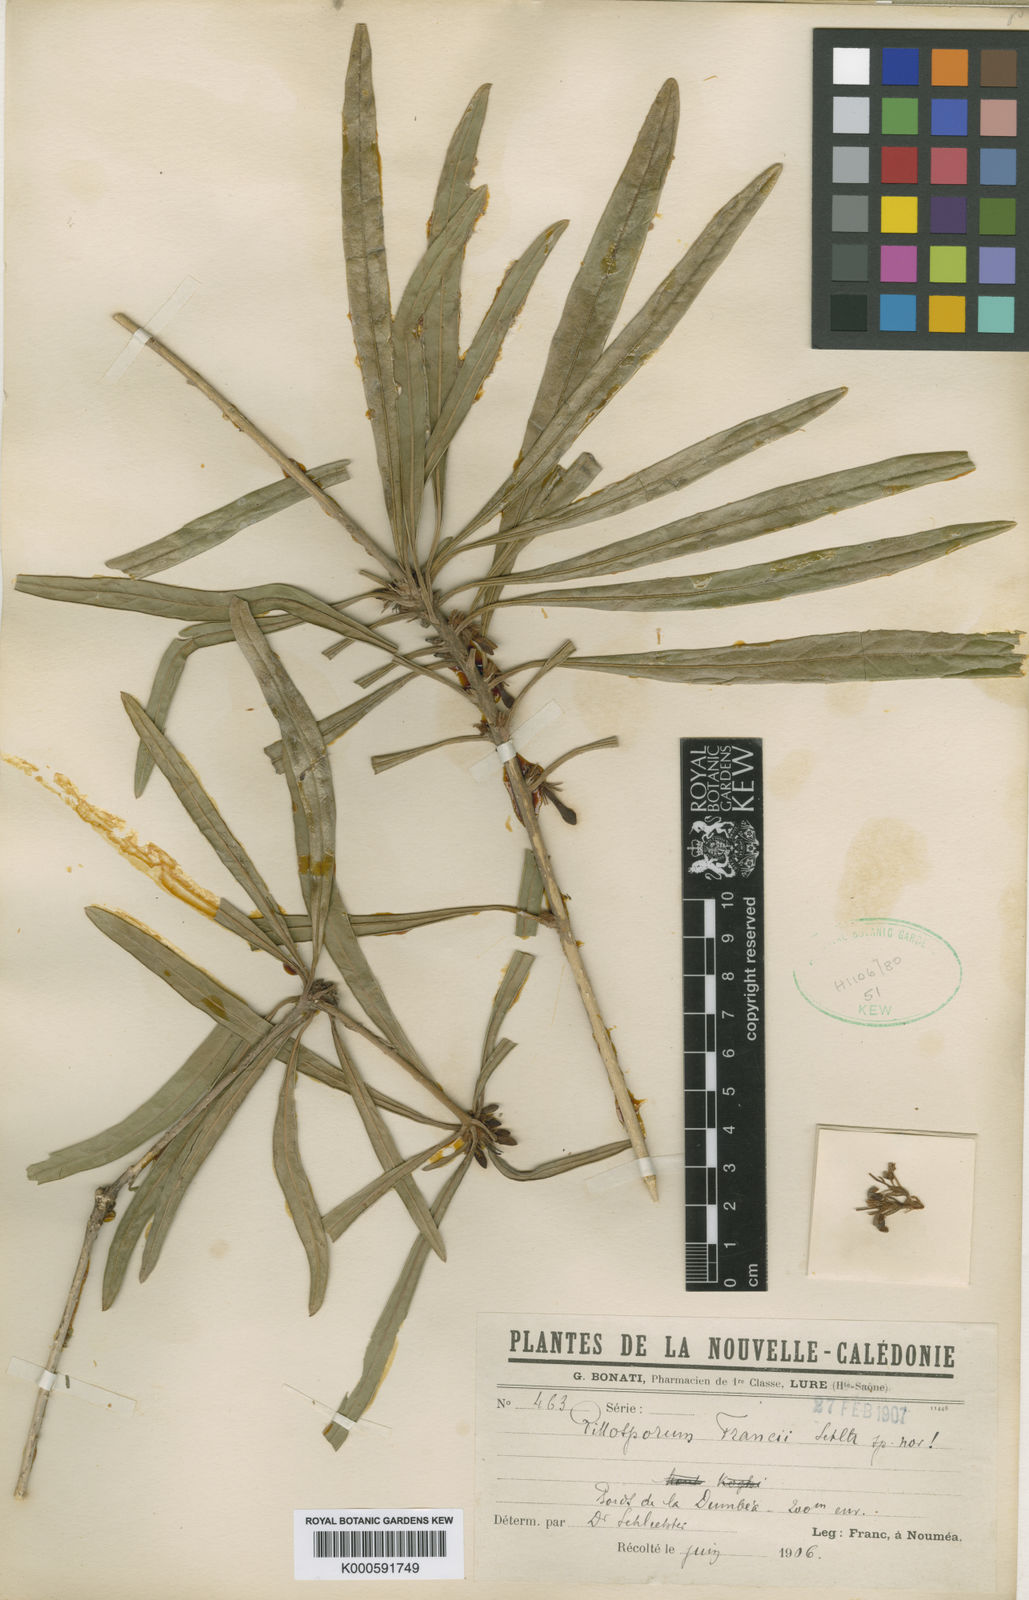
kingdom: Plantae
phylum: Tracheophyta
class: Magnoliopsida
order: Apiales
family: Pittosporaceae
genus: Pittosporum
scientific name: Pittosporum
